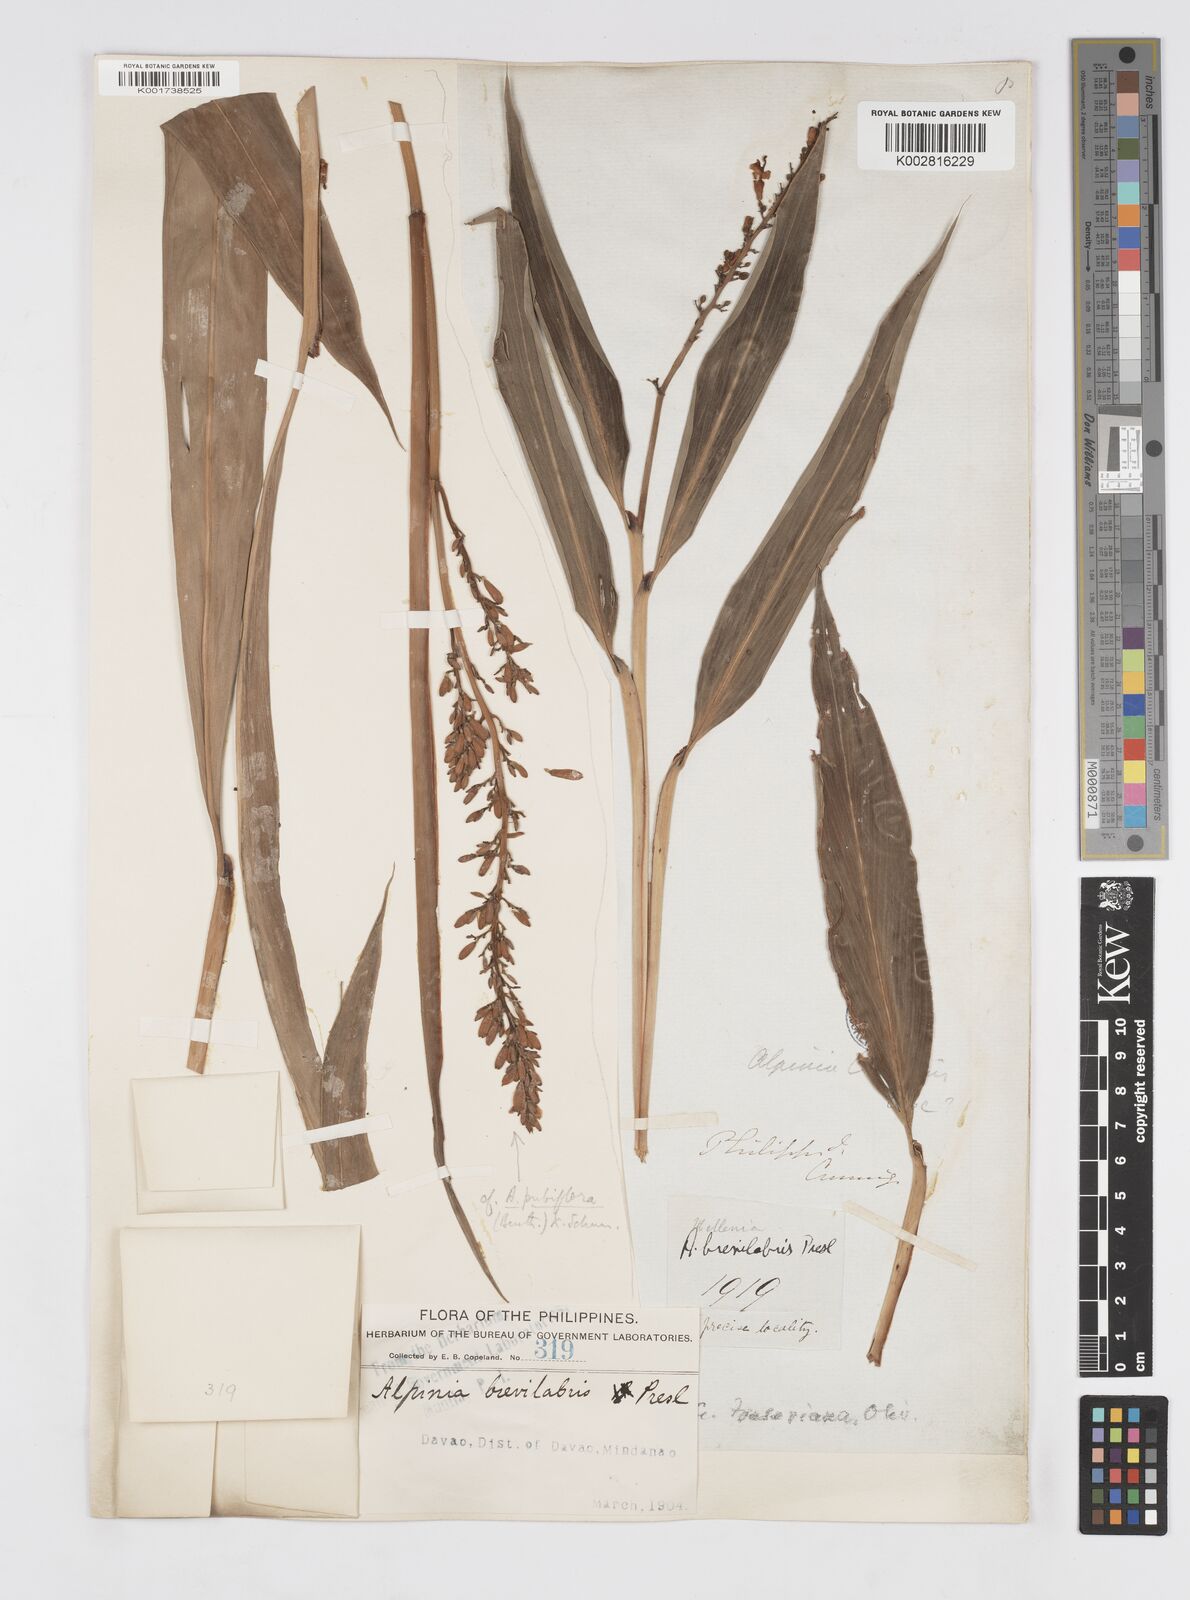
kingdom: Plantae
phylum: Tracheophyta
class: Liliopsida
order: Zingiberales
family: Zingiberaceae
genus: Alpinia
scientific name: Alpinia pubiflora
